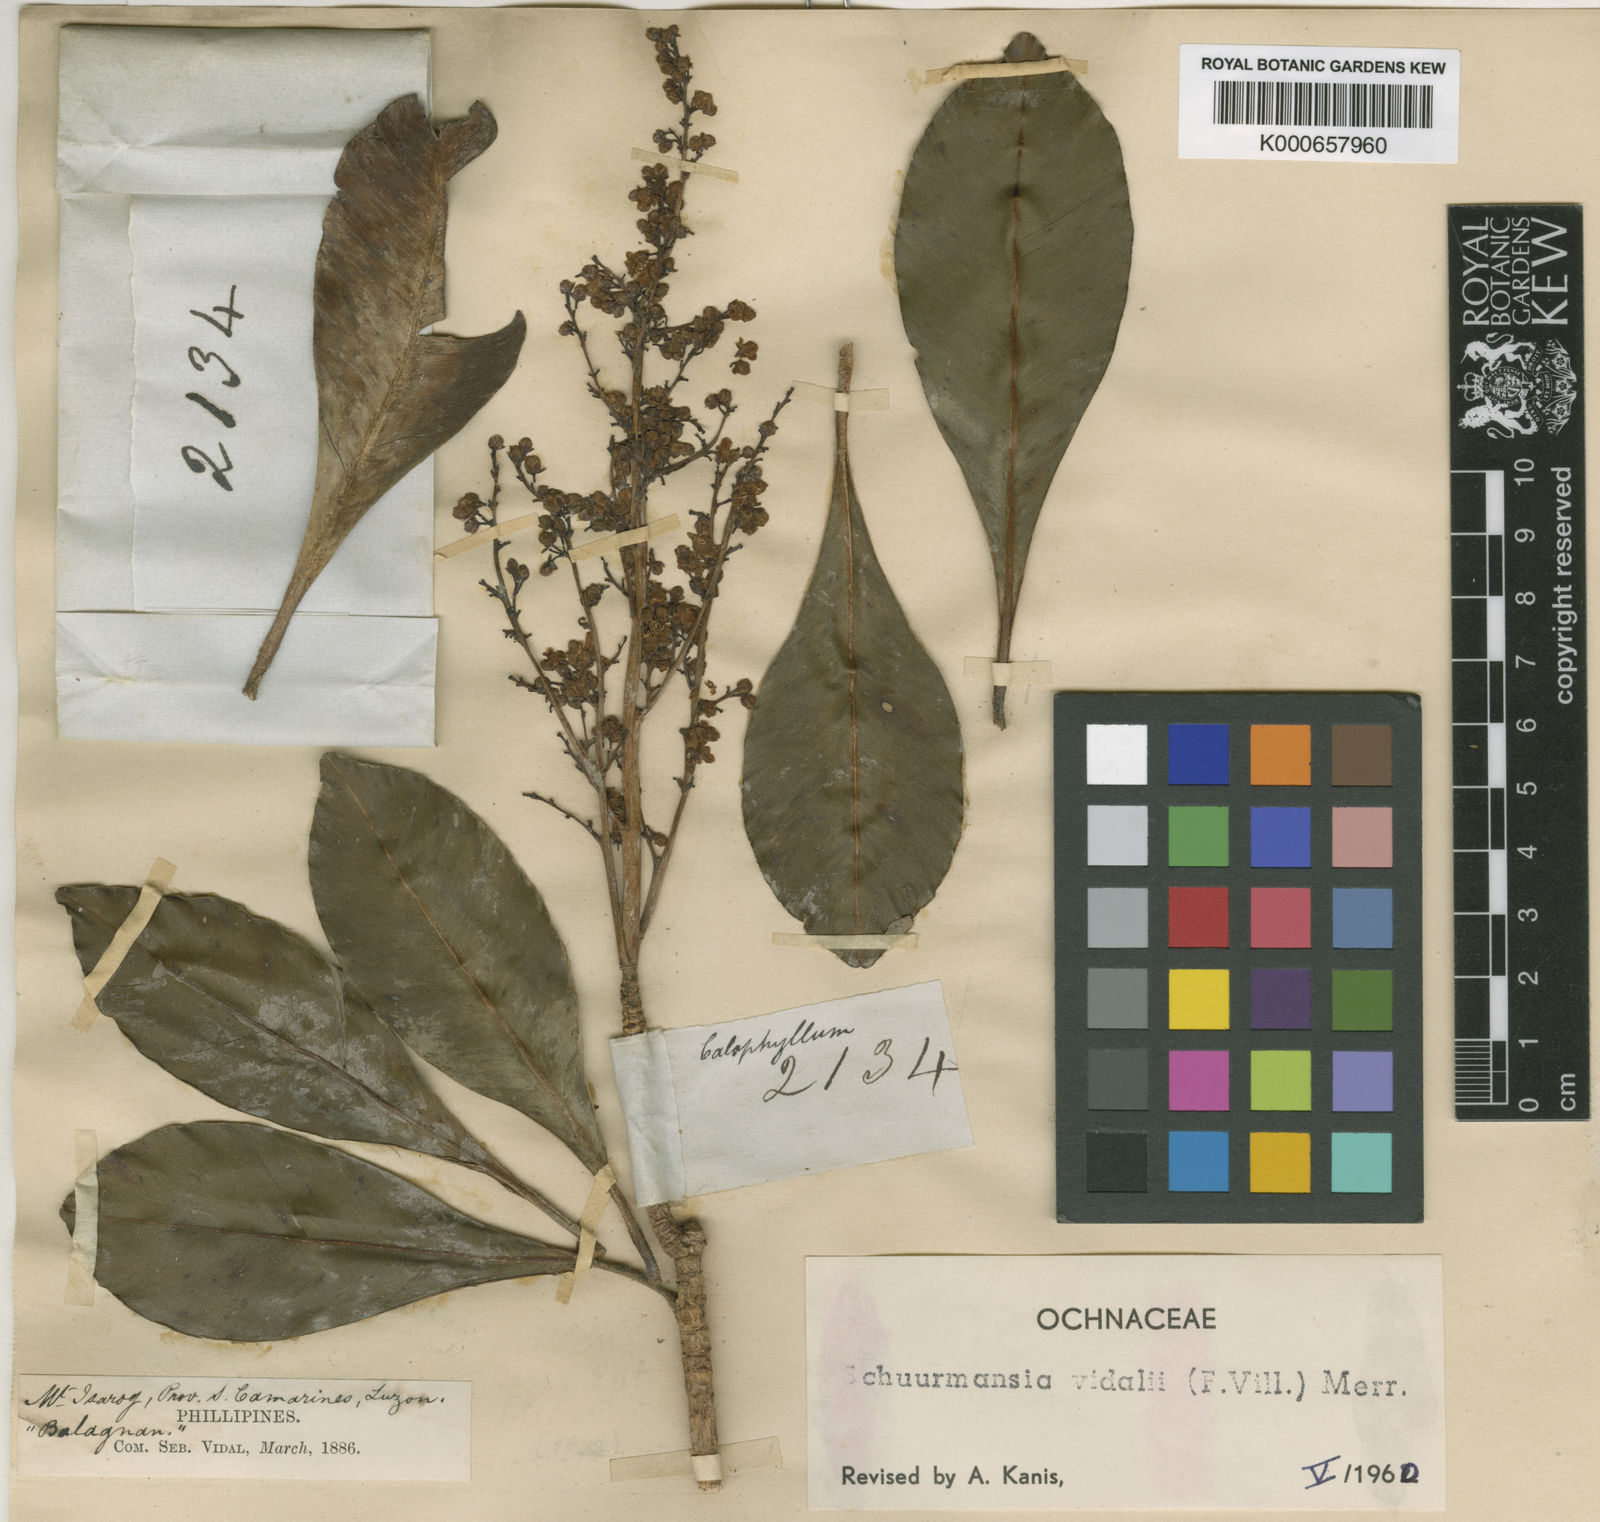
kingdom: Plantae
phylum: Tracheophyta
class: Magnoliopsida
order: Malpighiales
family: Ochnaceae
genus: Schuurmansia
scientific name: Schuurmansia vidalii
